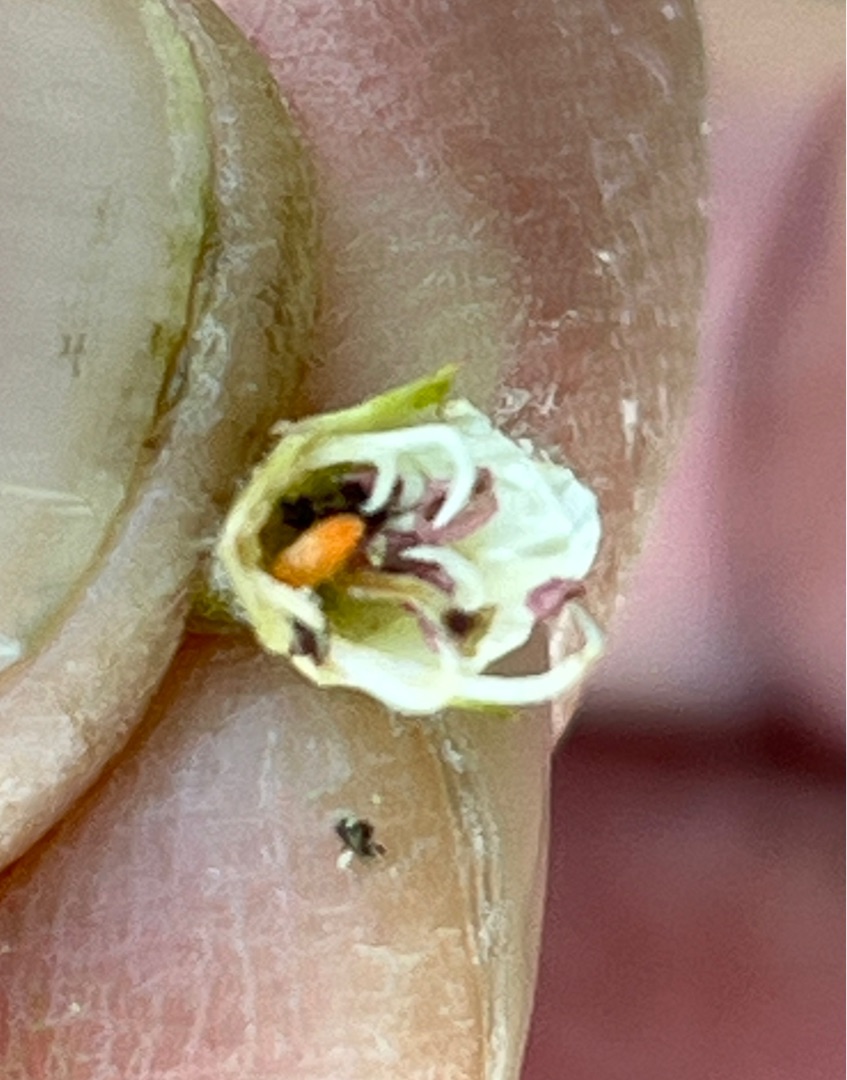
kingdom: Animalia
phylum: Arthropoda
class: Insecta
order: Diptera
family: Cecidomyiidae
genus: Dasineura
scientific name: Dasineura oxyacanthae
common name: Rød tjørneblomstgalmyg
